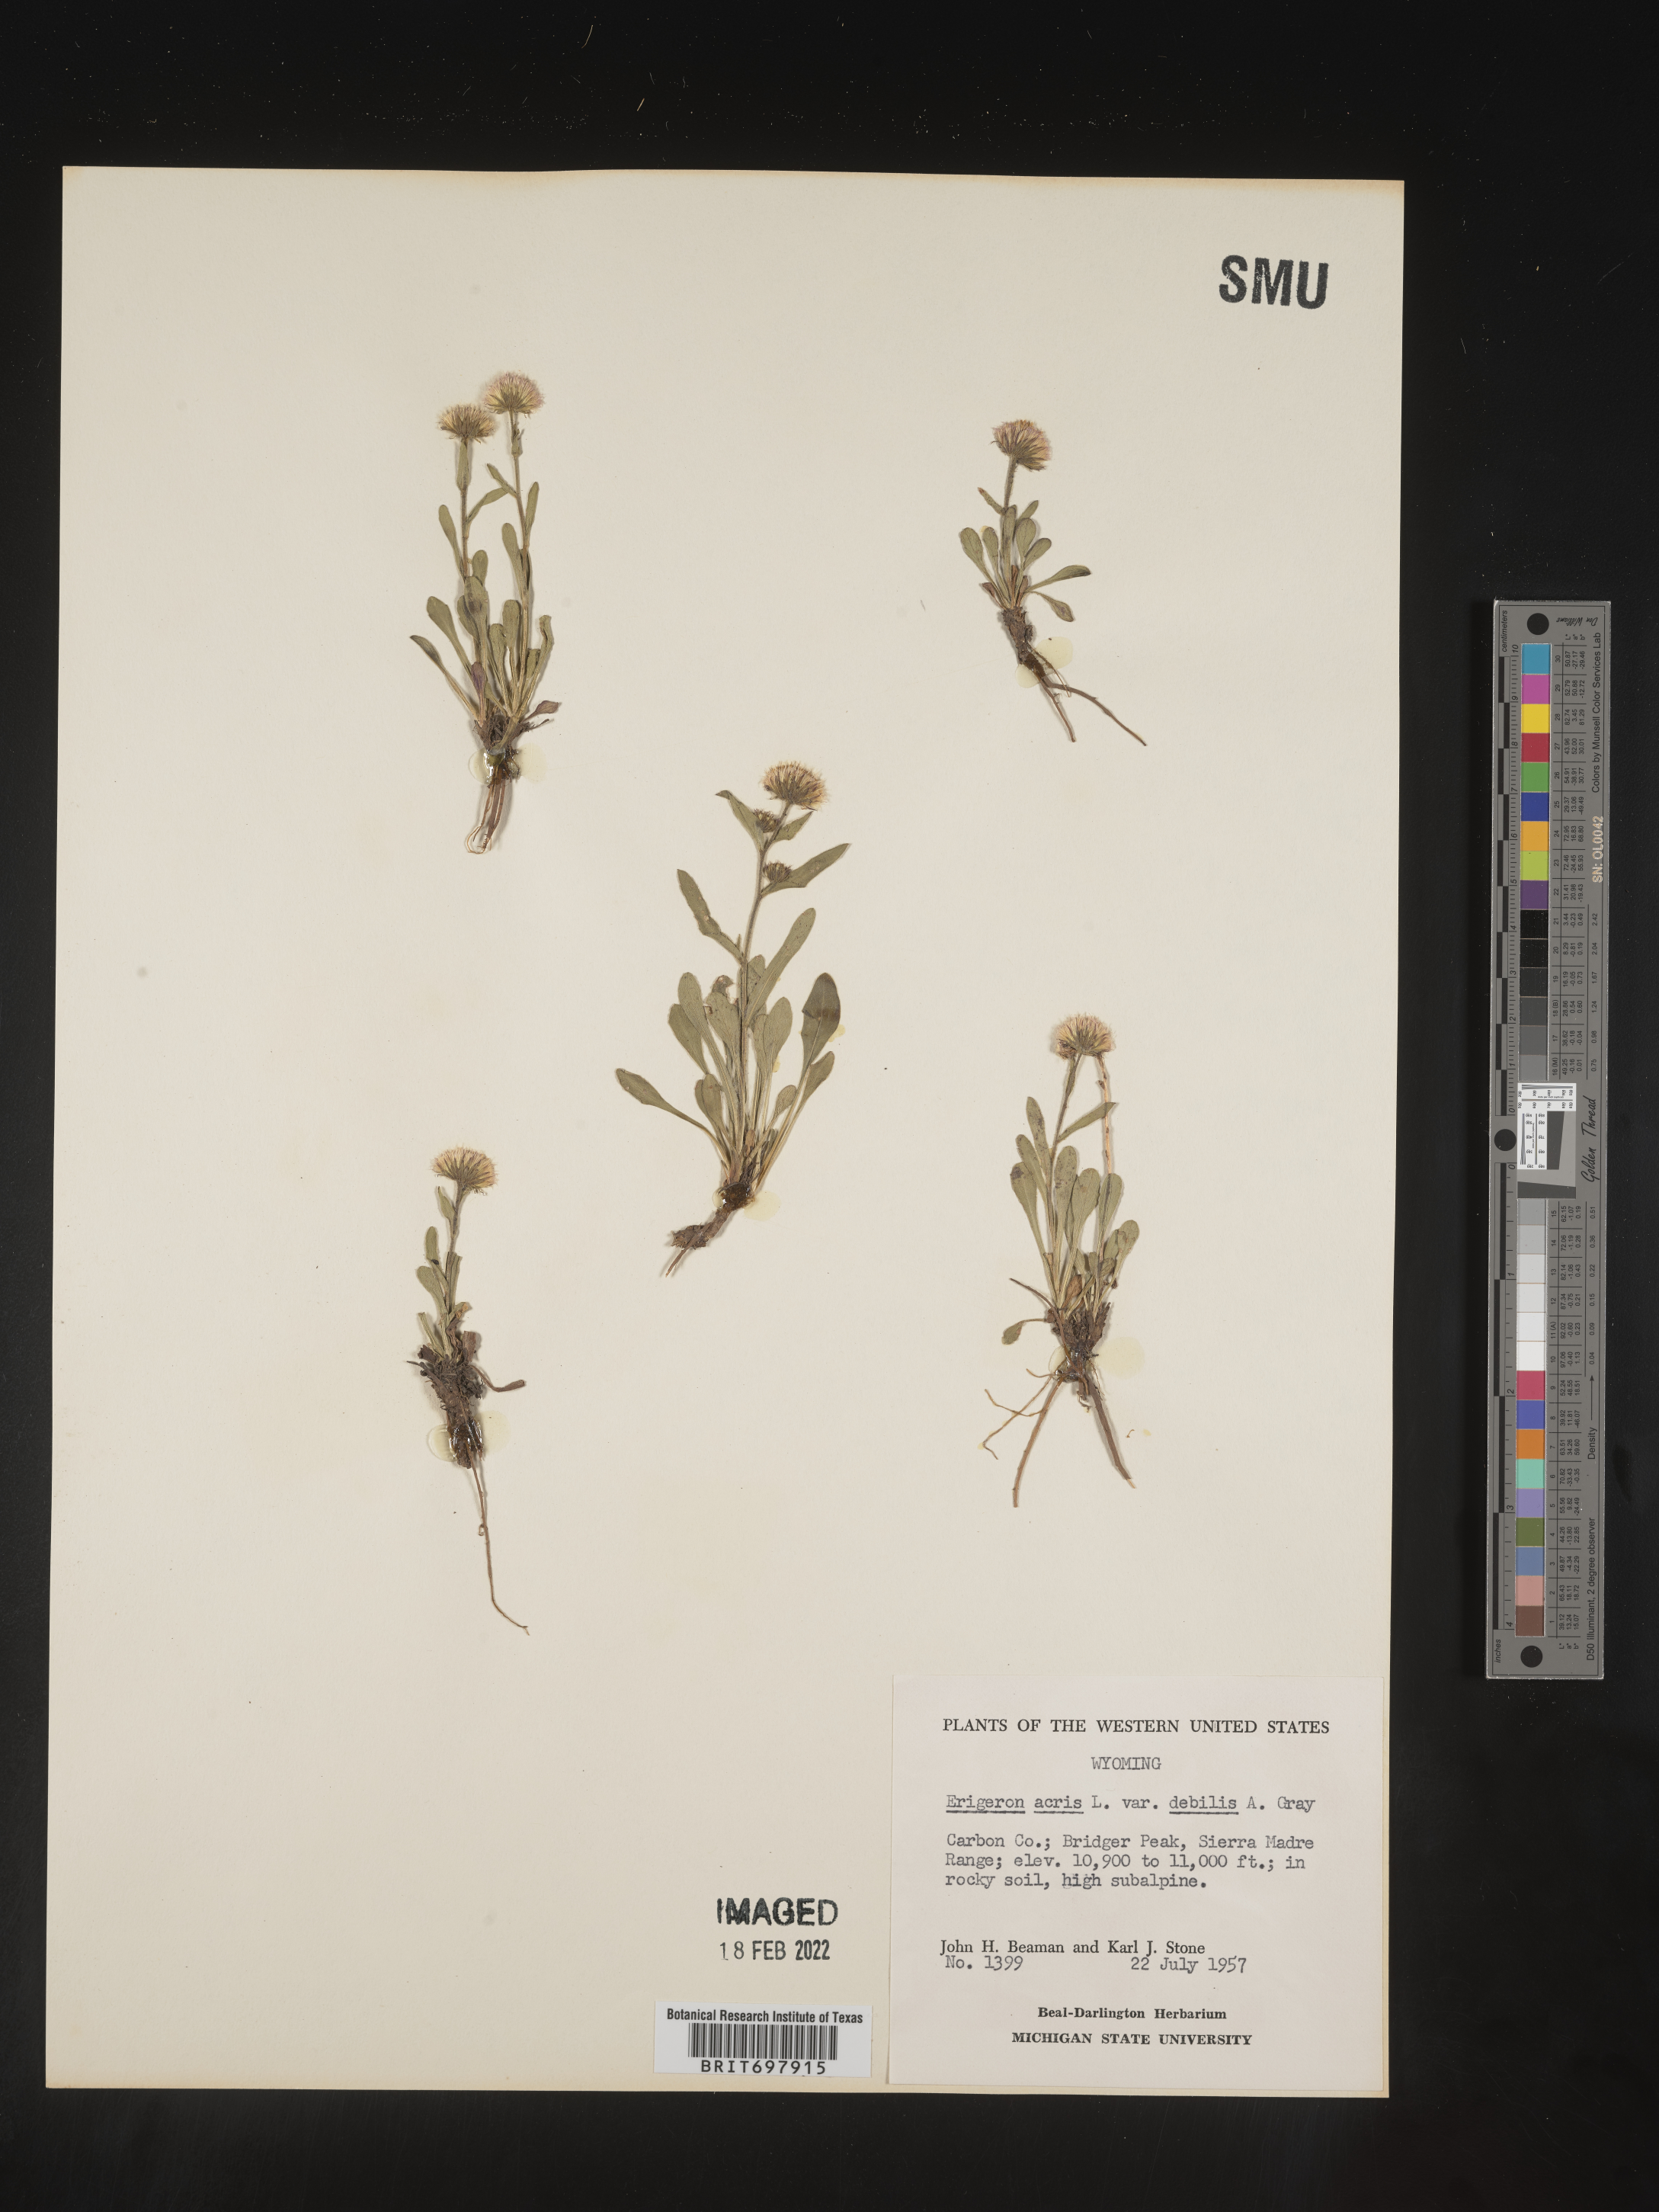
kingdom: Plantae
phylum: Tracheophyta
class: Magnoliopsida
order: Asterales
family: Asteraceae
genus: Erigeron
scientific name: Erigeron nivalis
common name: Snow fleabane
